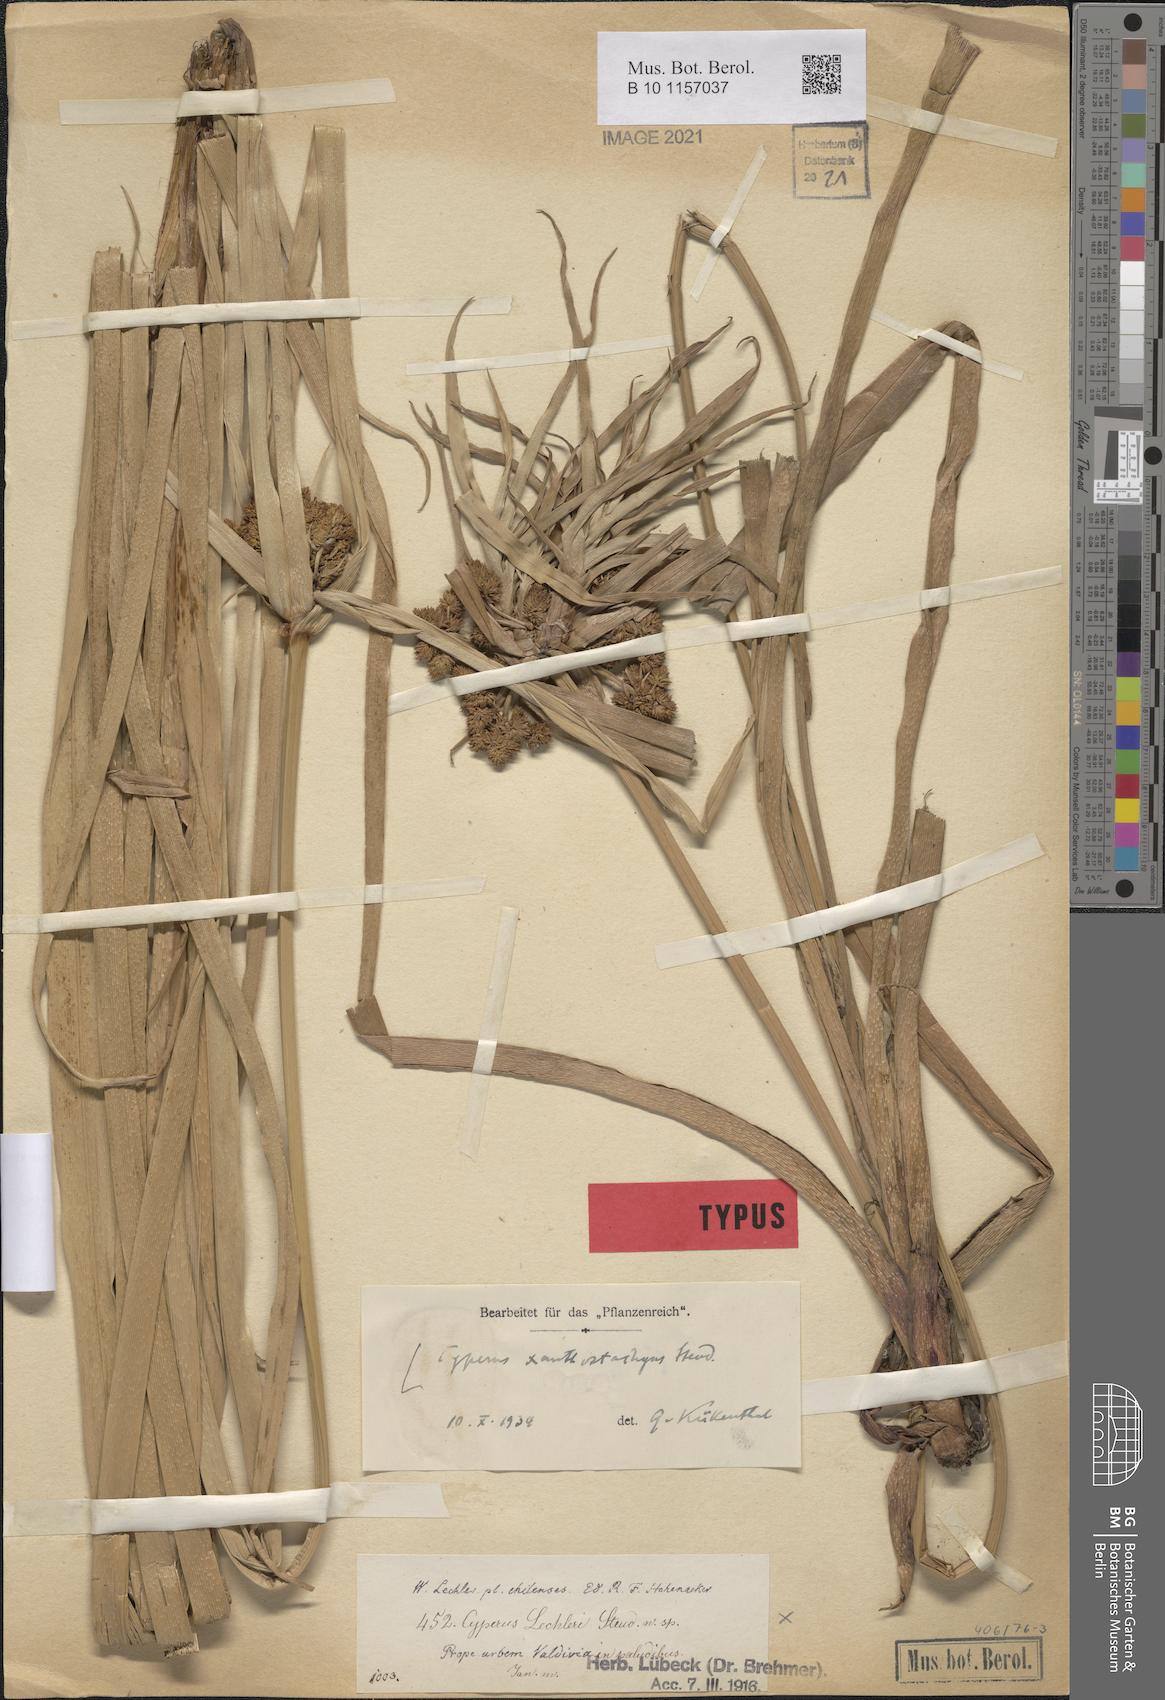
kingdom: Plantae
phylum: Tracheophyta
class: Liliopsida
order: Poales
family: Cyperaceae
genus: Cyperus
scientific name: Cyperus xanthostachyus
